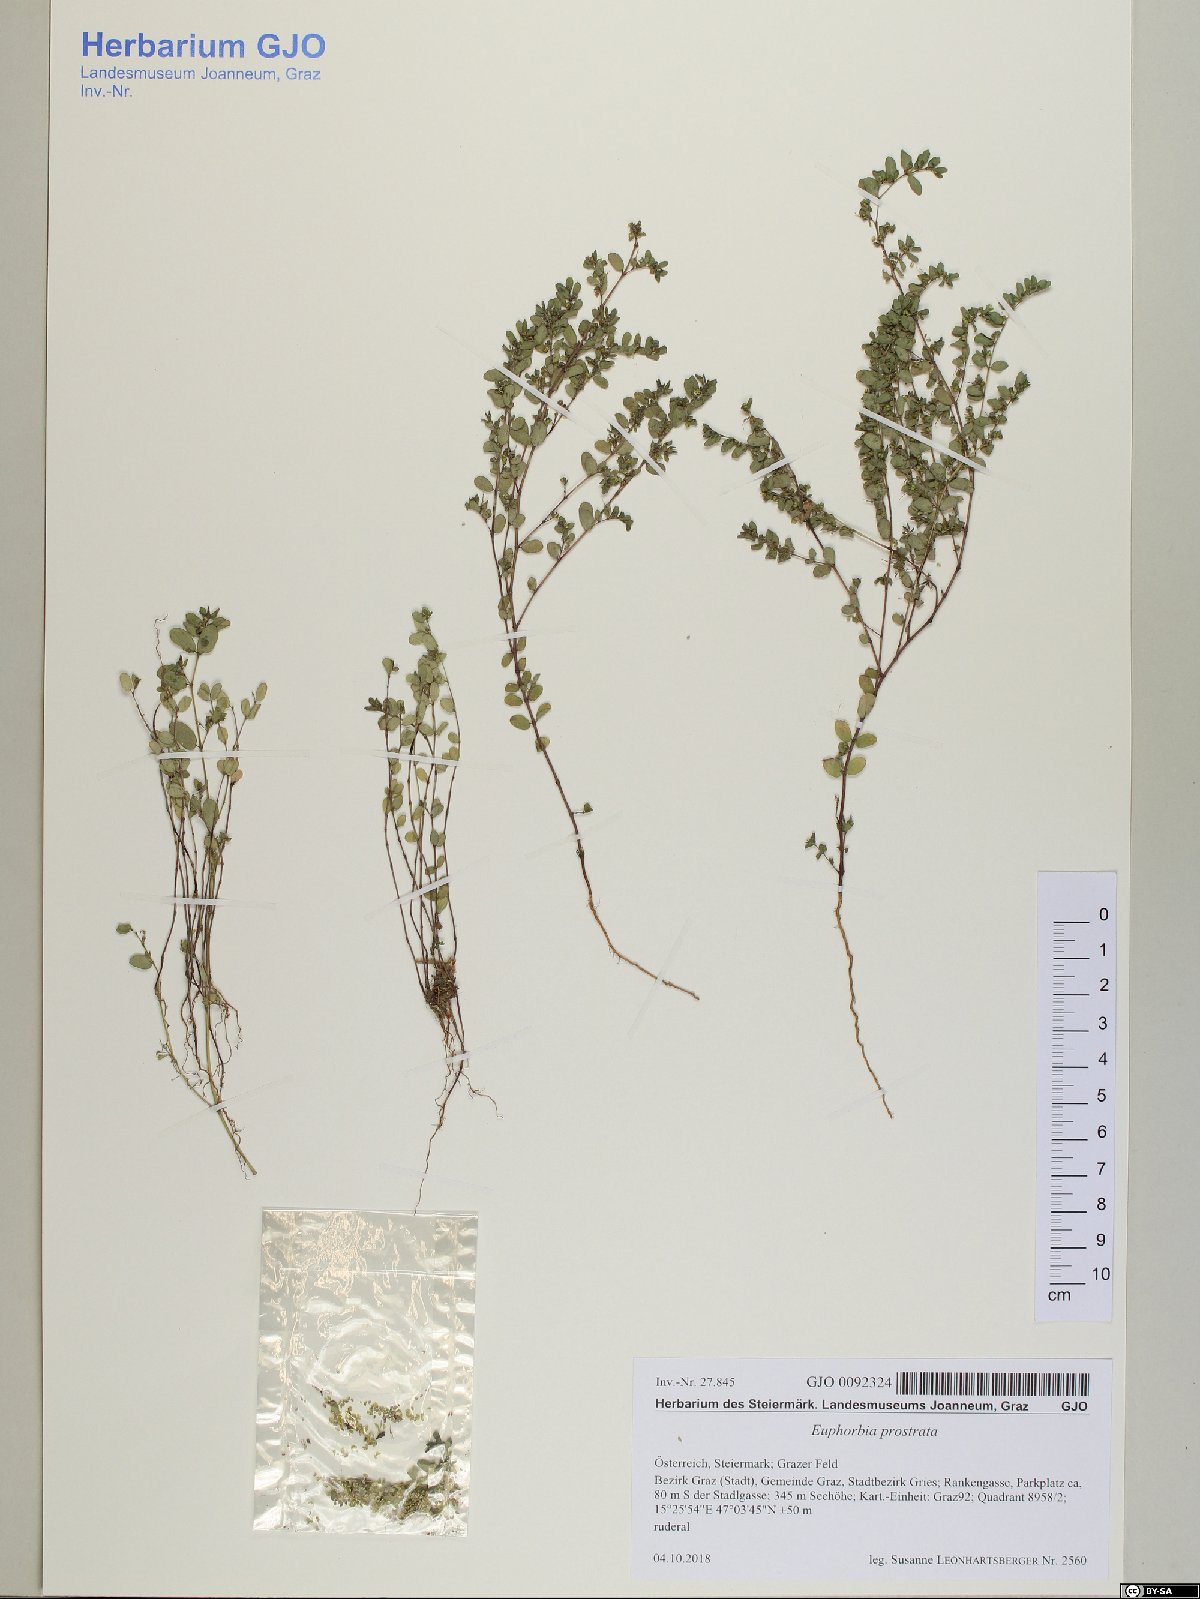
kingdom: Plantae
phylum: Tracheophyta
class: Magnoliopsida
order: Malpighiales
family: Euphorbiaceae
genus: Euphorbia
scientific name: Euphorbia prostrata
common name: Prostrate sandmat
